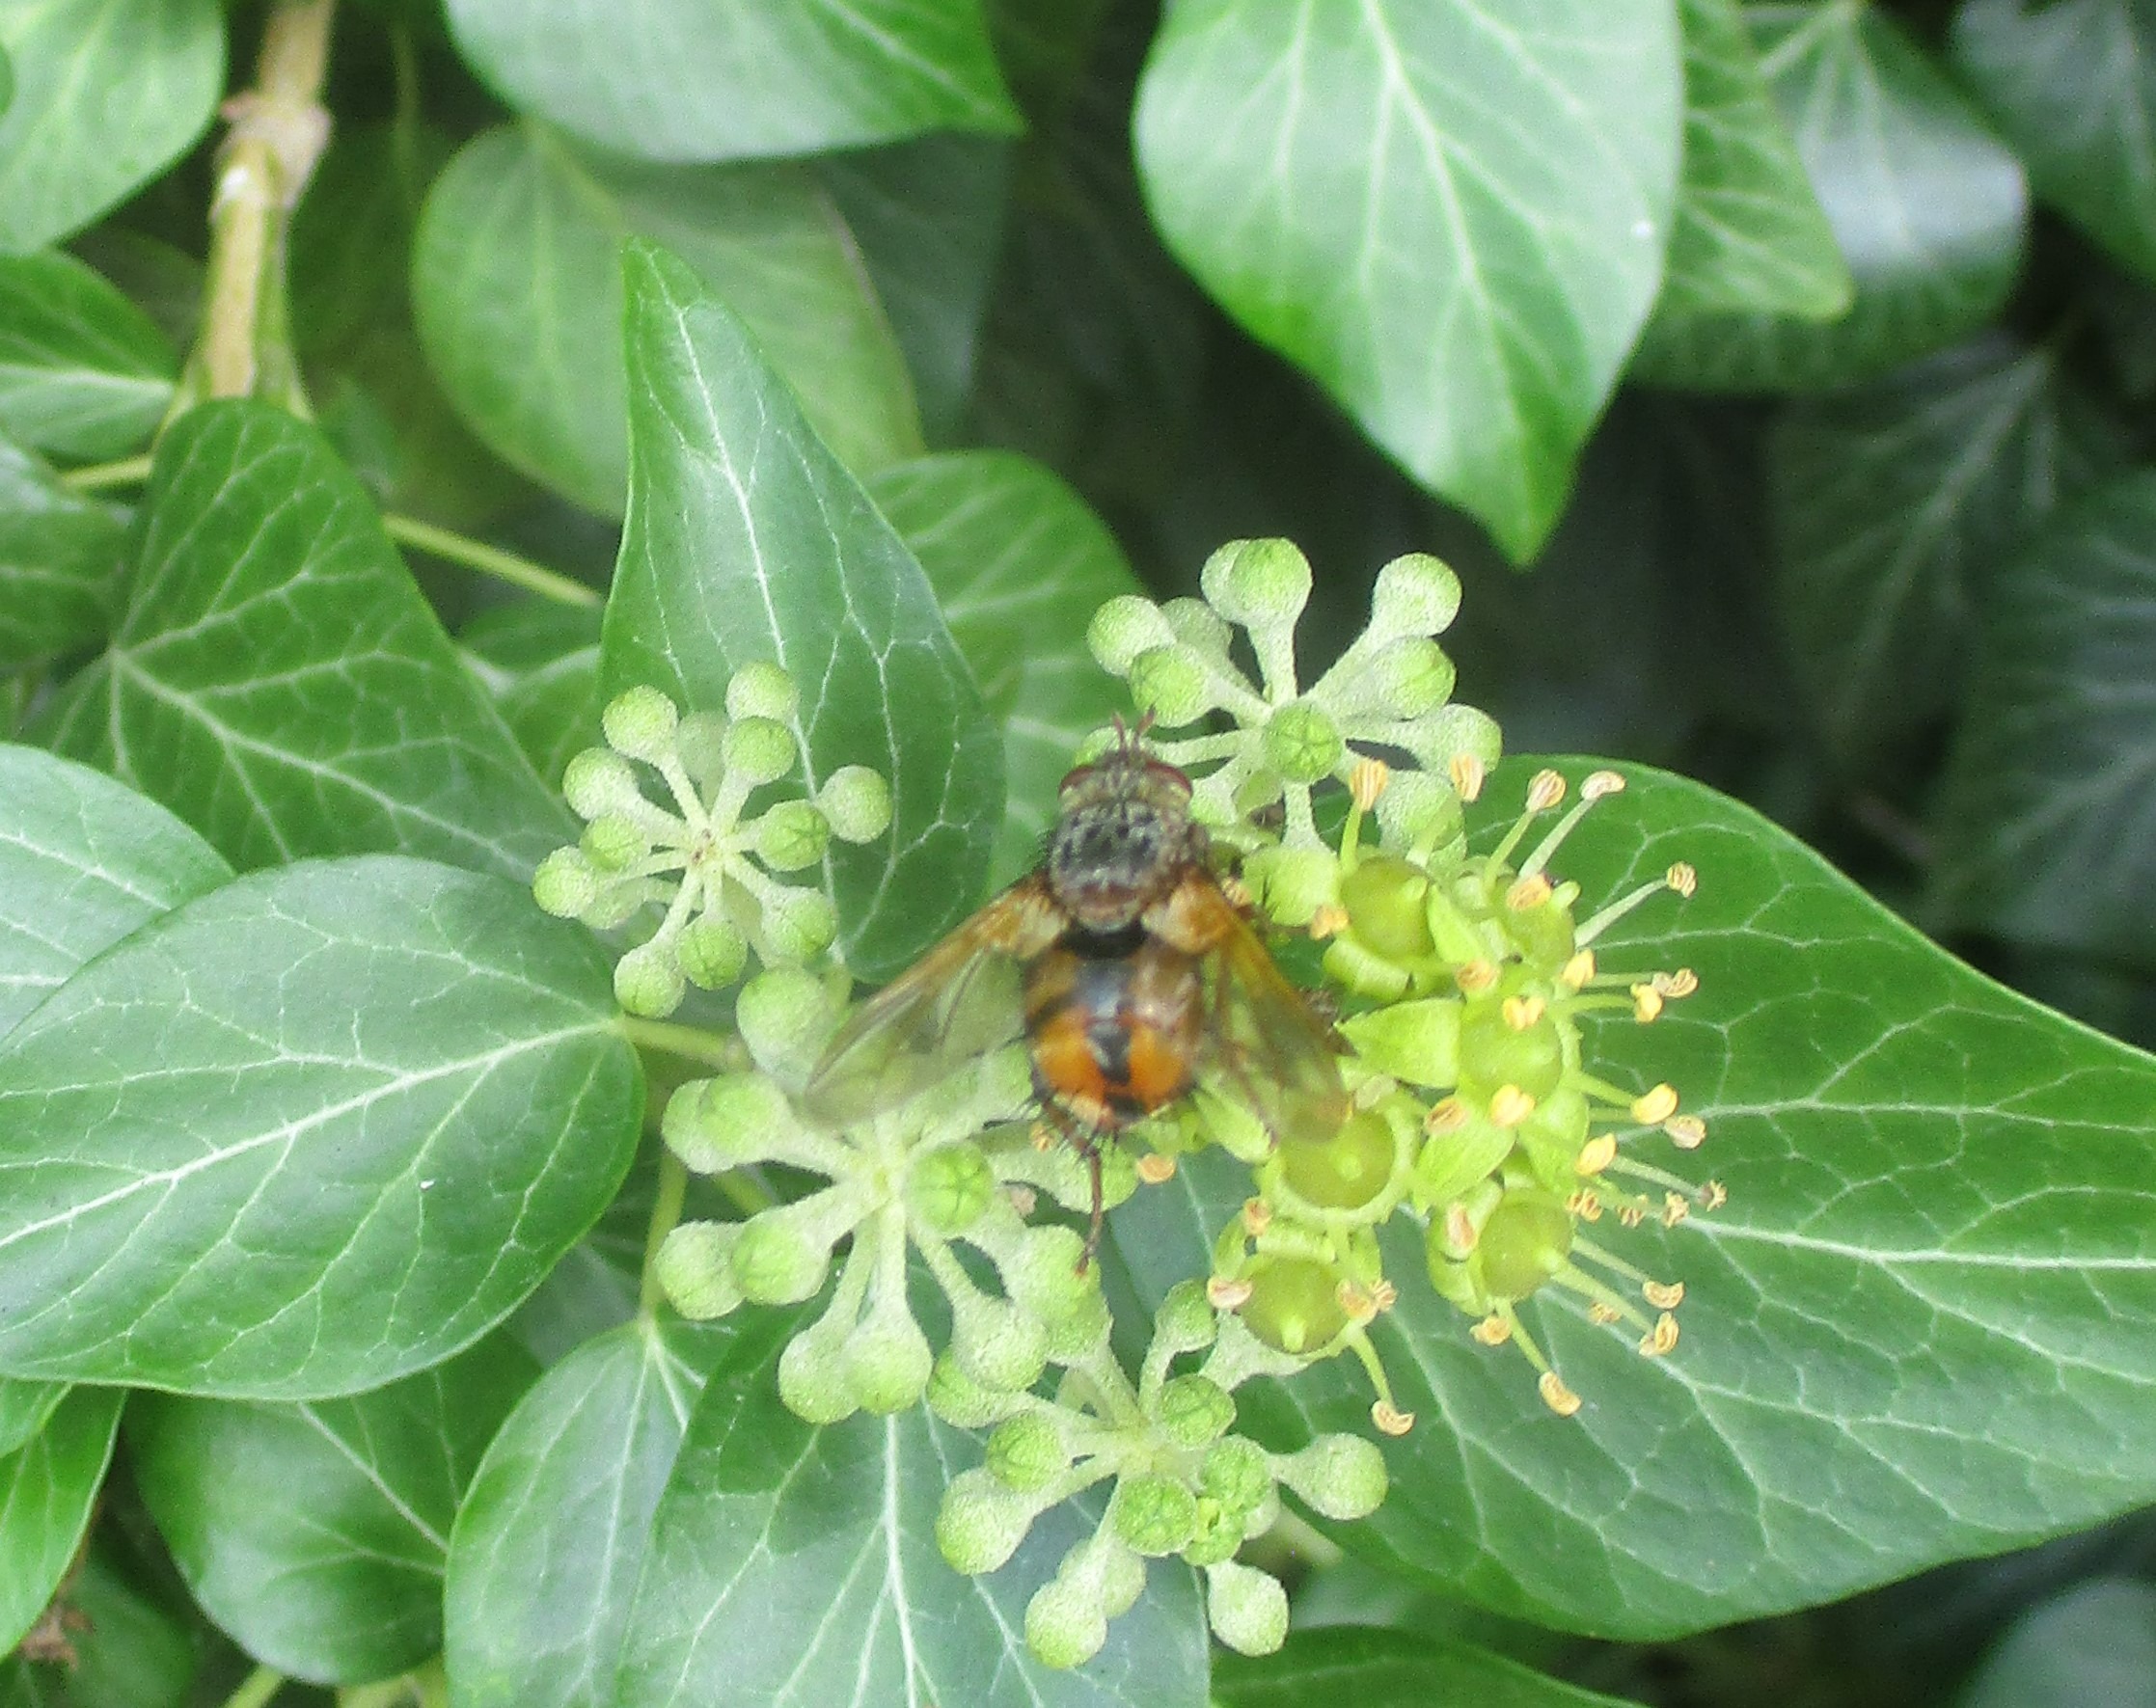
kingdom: Animalia
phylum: Arthropoda
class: Insecta
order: Diptera
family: Tachinidae
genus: Tachina
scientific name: Tachina fera
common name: Mellemfluen oskar
